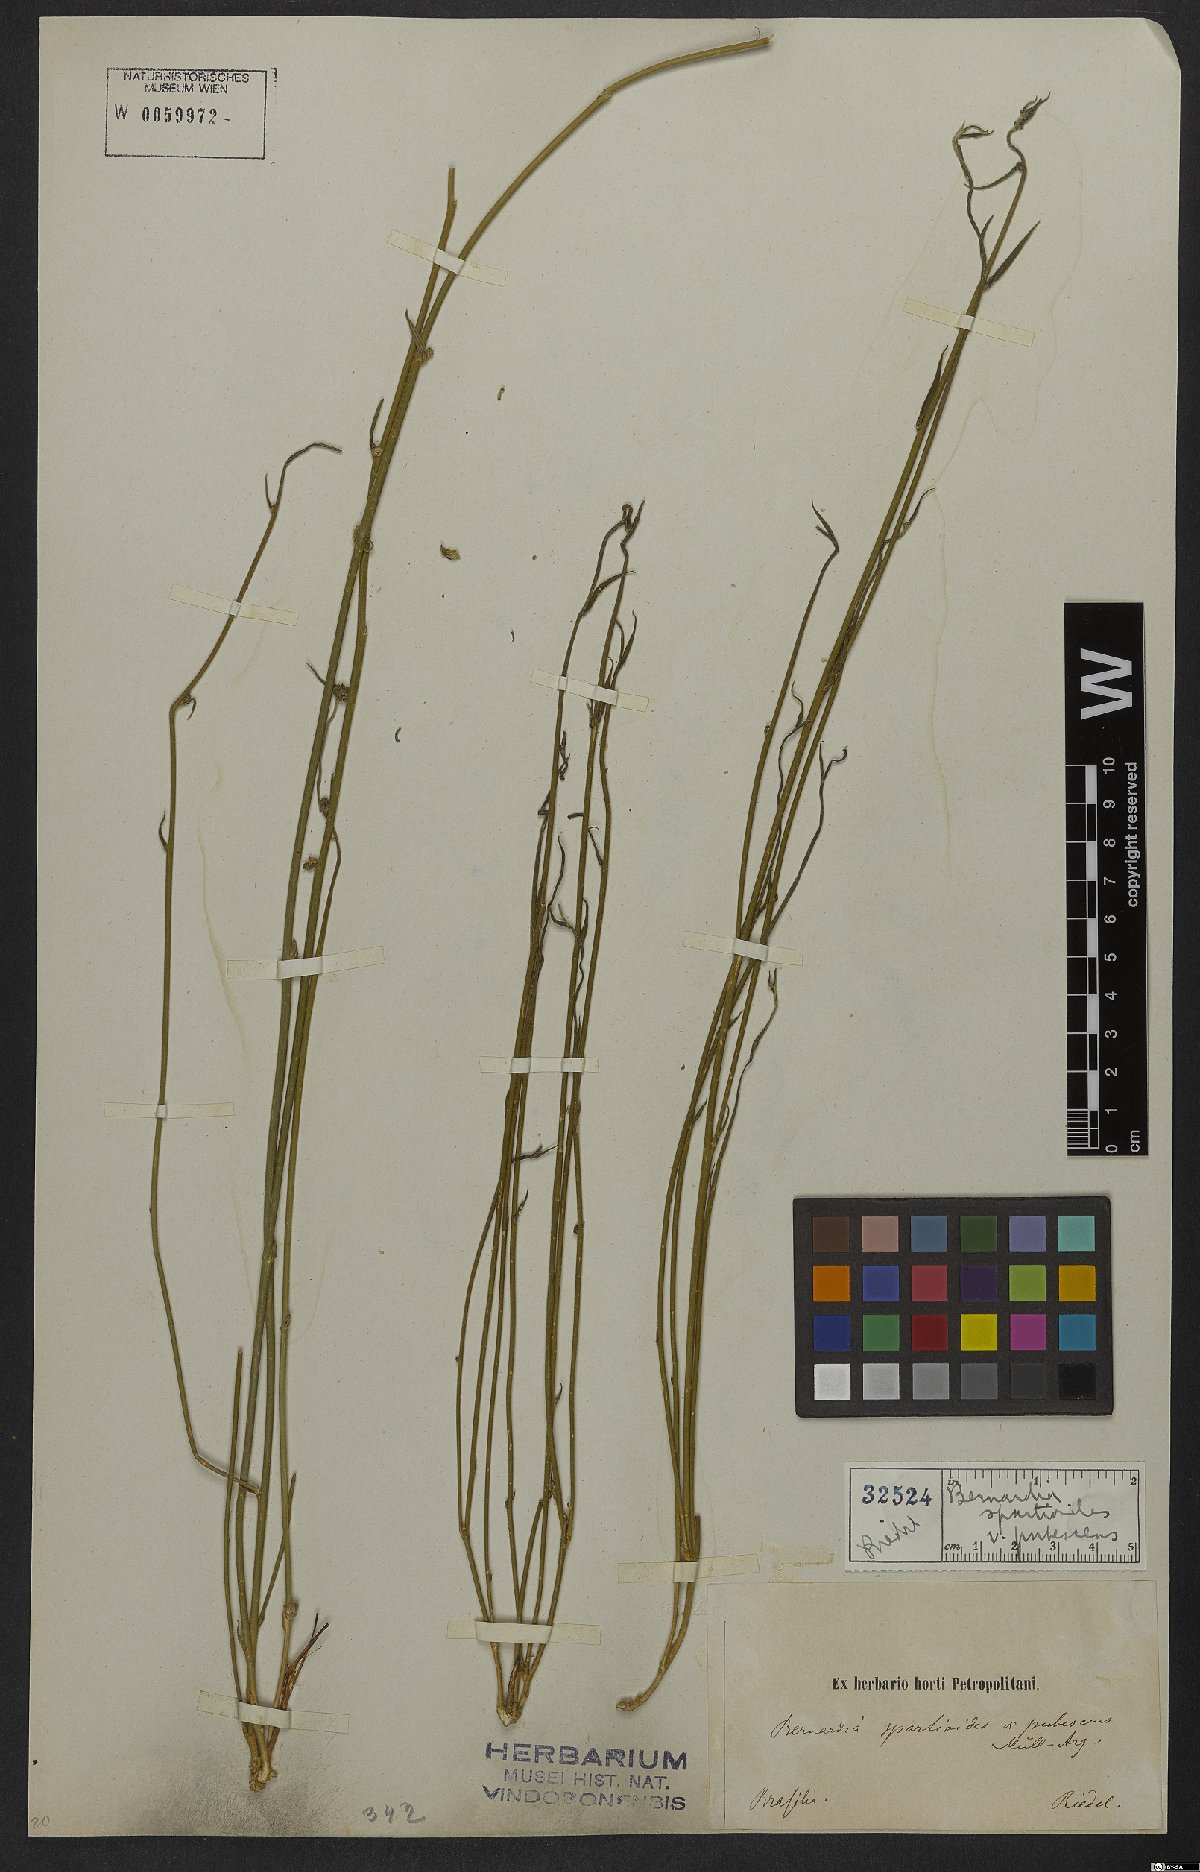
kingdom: Plantae
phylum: Tracheophyta
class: Magnoliopsida
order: Malpighiales
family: Euphorbiaceae
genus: Bernardia
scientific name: Bernardia spartioides
